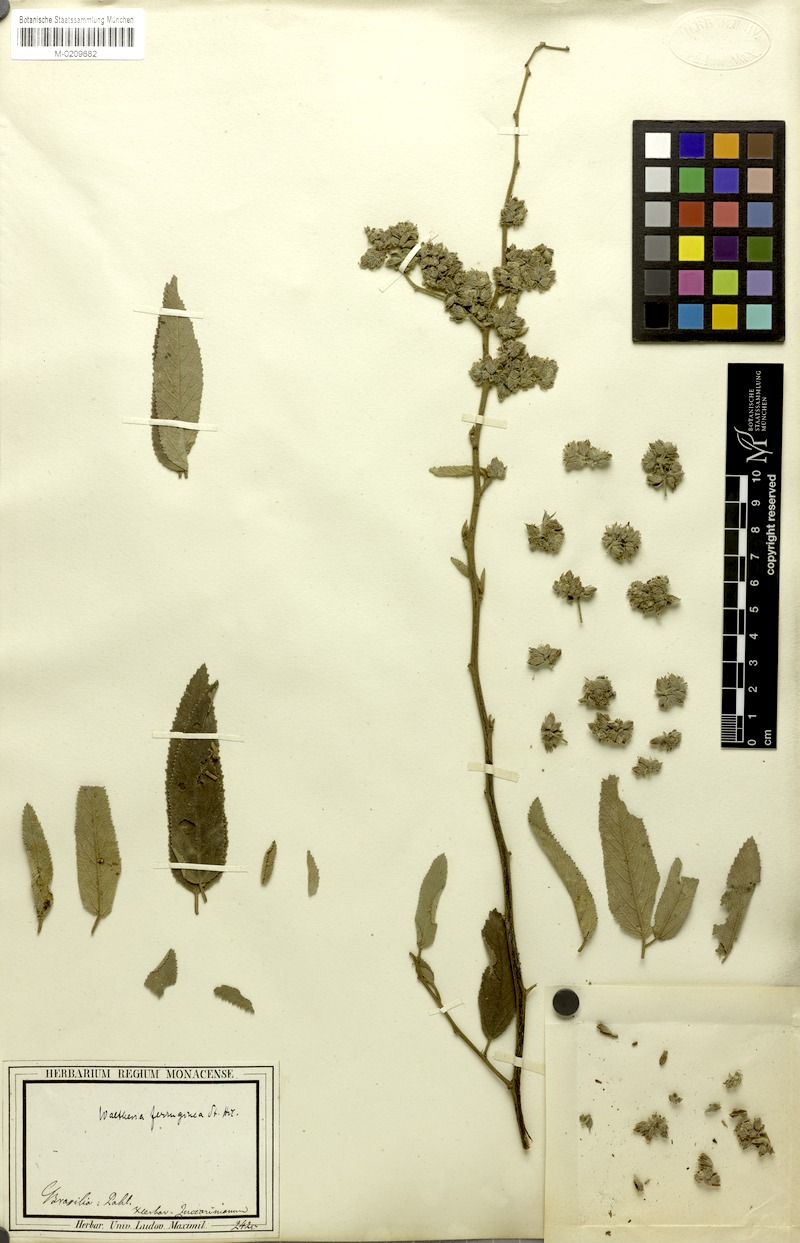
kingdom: Plantae
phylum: Tracheophyta
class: Magnoliopsida
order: Malvales
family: Malvaceae
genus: Waltheria
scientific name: Waltheria ferruginea
